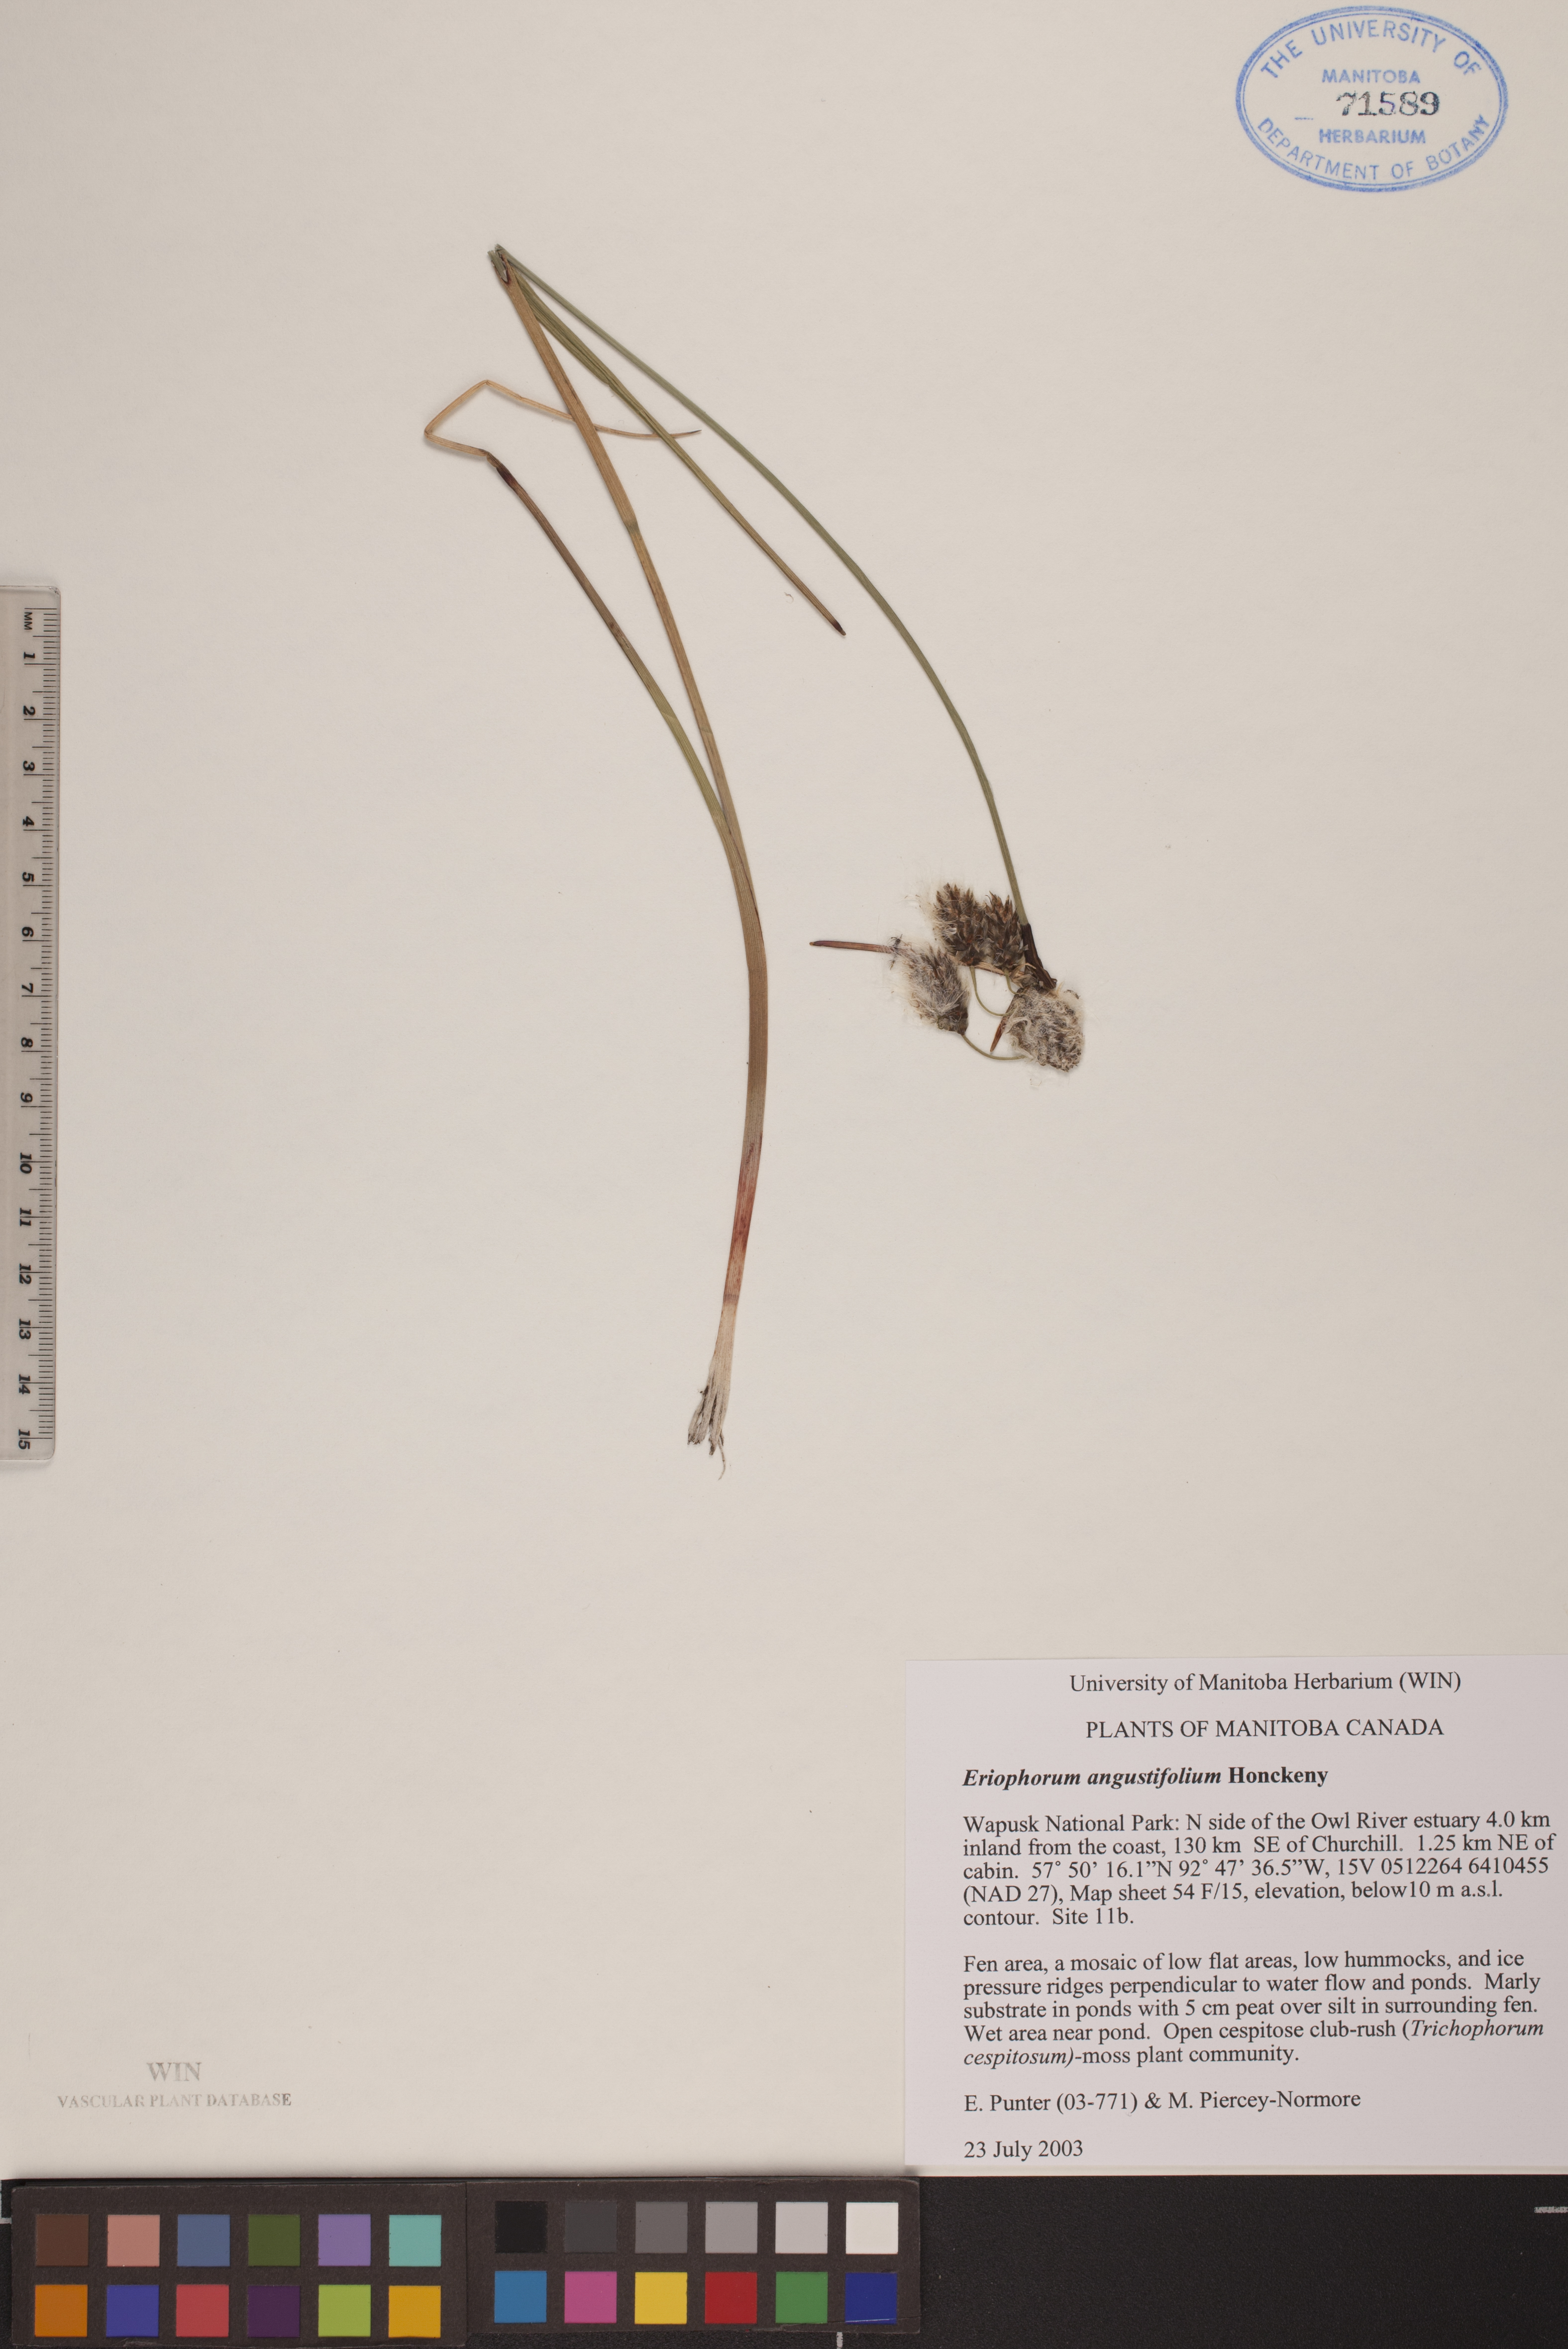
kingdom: Plantae
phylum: Tracheophyta
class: Liliopsida
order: Poales
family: Cyperaceae
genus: Eriophorum
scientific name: Eriophorum angustifolium
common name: Common cottongrass
